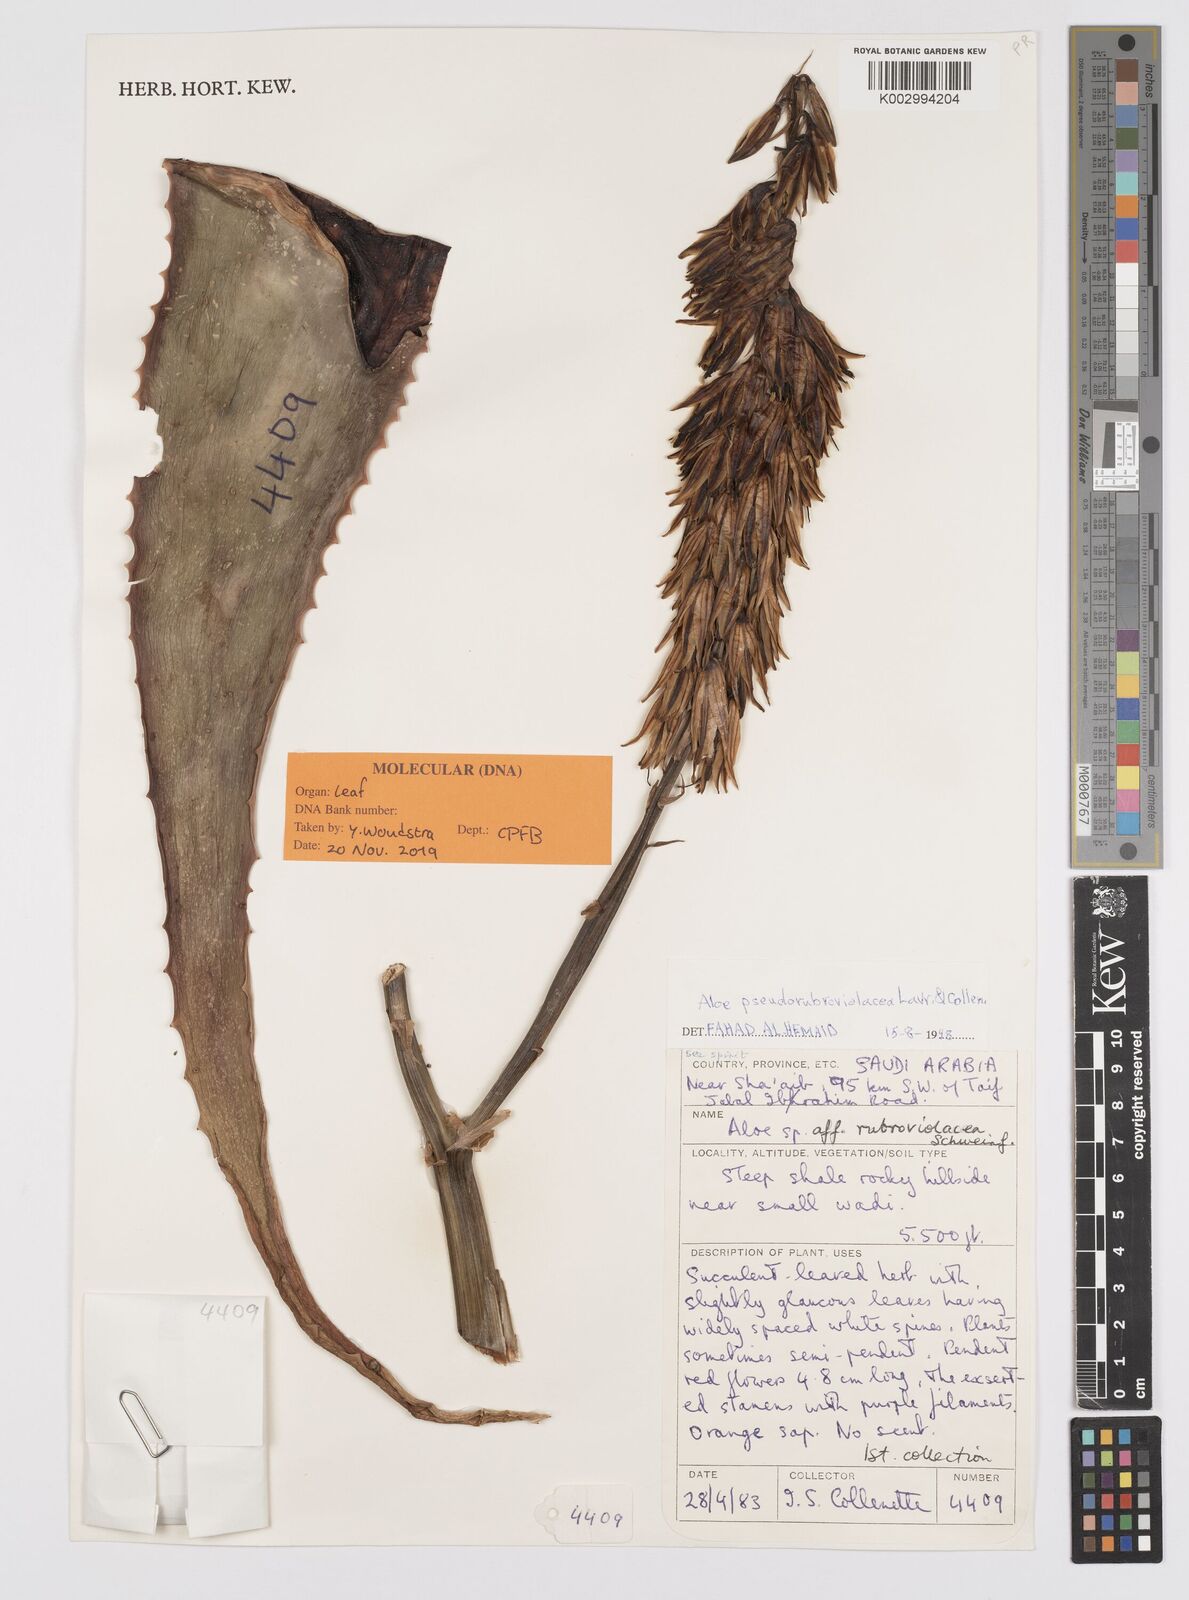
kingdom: Plantae
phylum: Tracheophyta
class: Liliopsida
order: Asparagales
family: Asphodelaceae
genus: Aloe
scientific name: Aloe pseudorubroviolacea
